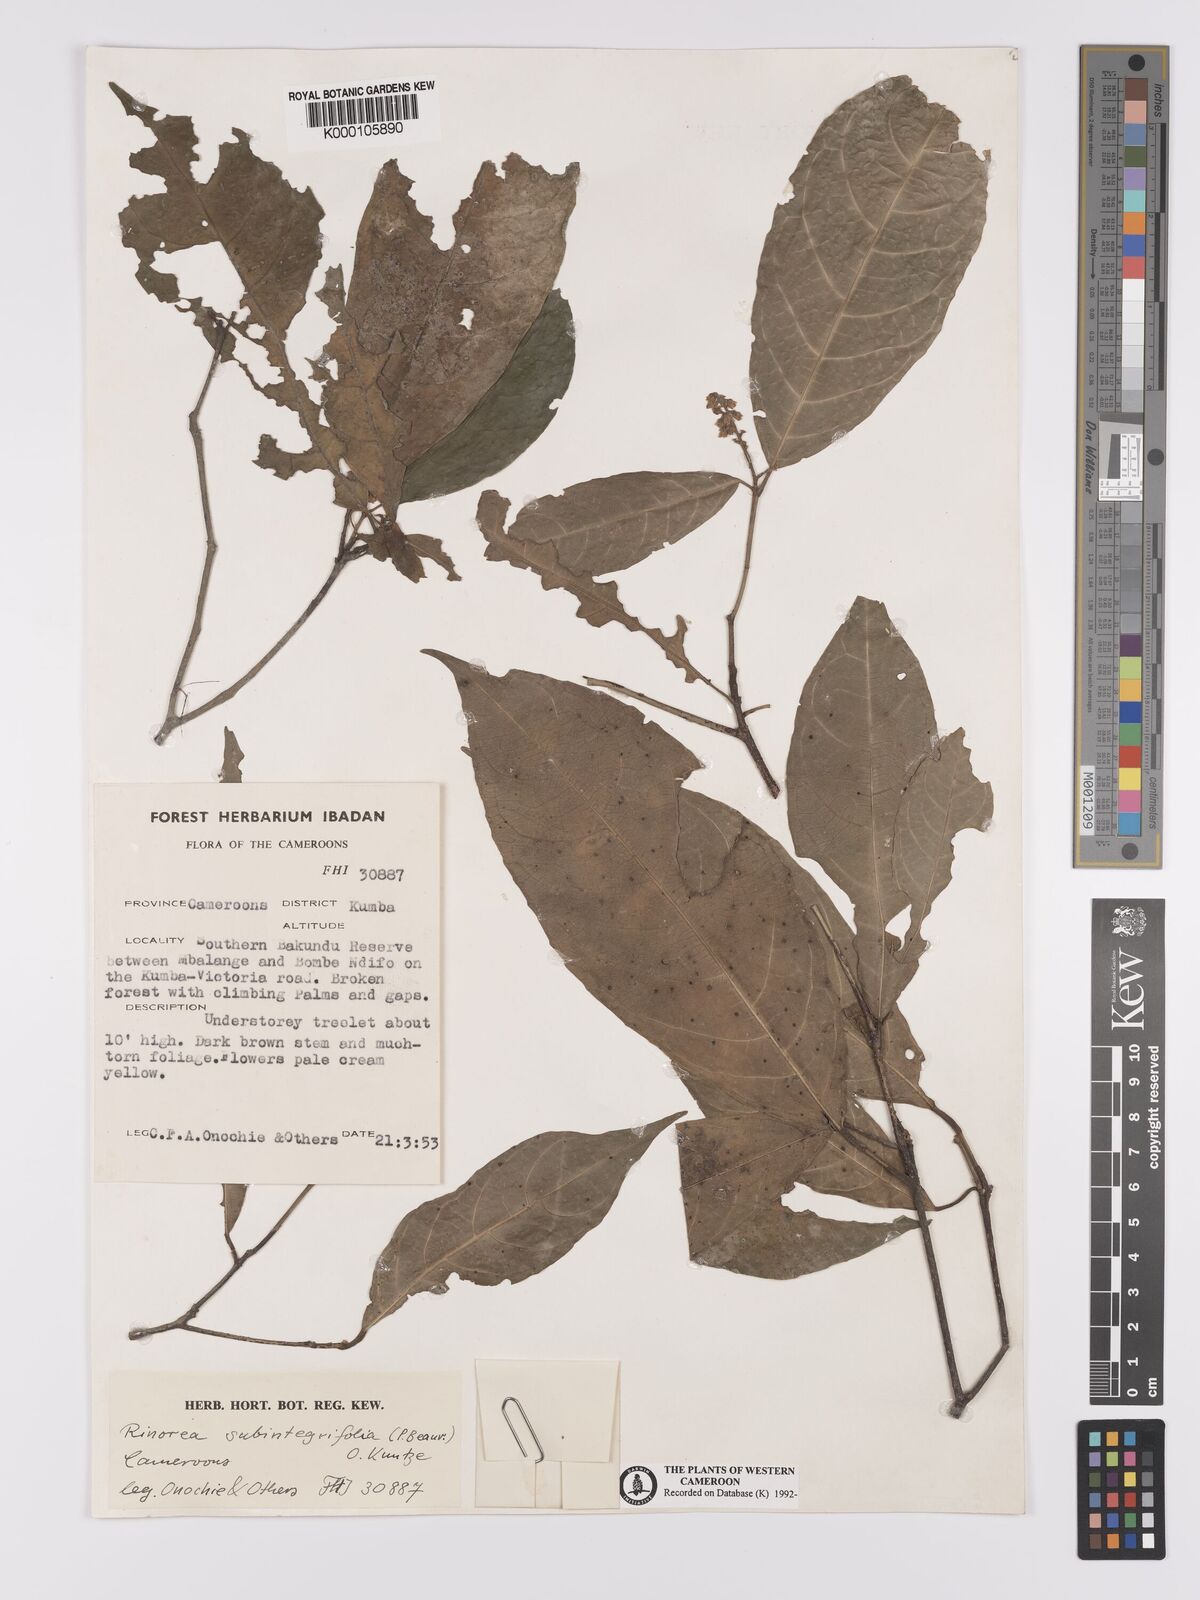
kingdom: Plantae
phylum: Tracheophyta
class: Magnoliopsida
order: Malpighiales
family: Violaceae
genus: Rinorea
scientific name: Rinorea subintegrifolia
